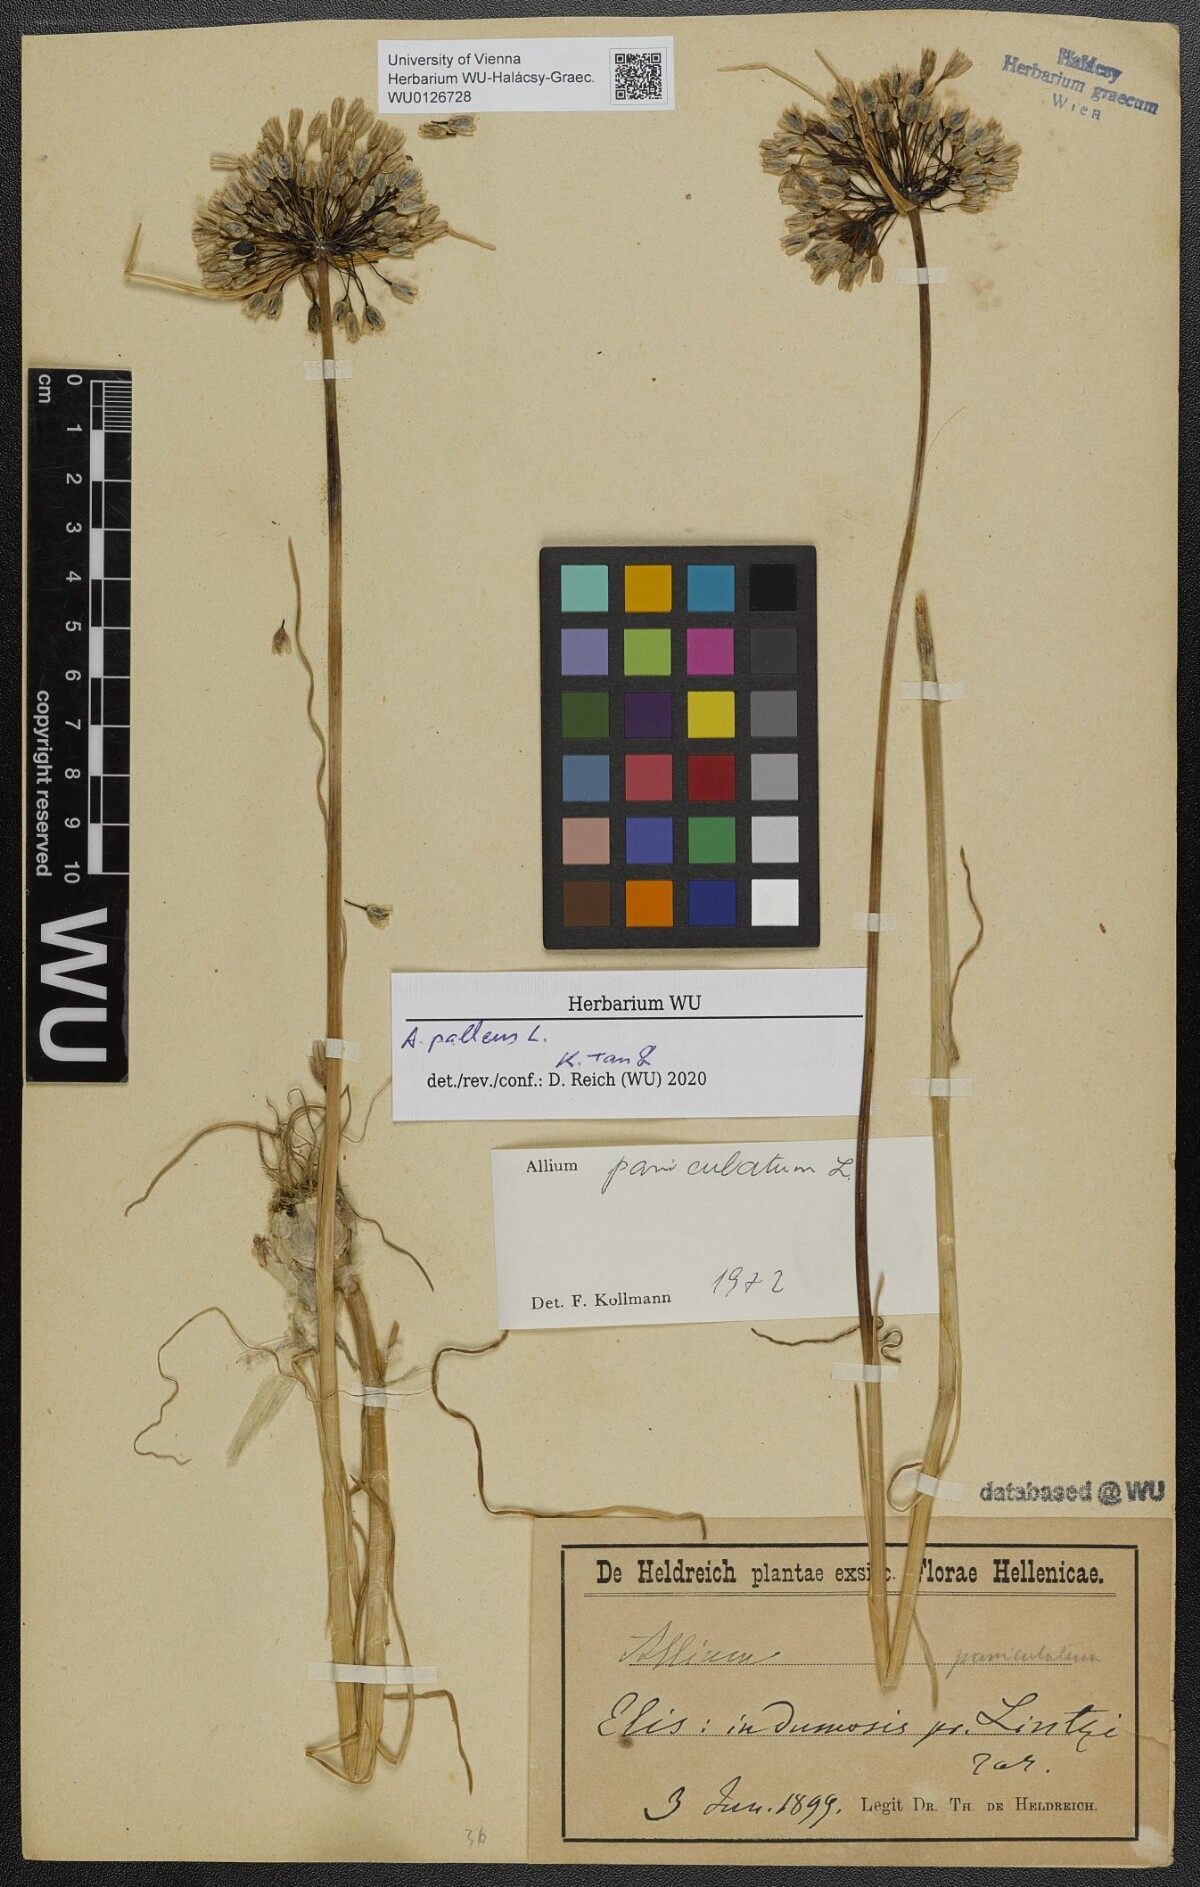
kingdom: Plantae
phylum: Tracheophyta
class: Liliopsida
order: Asparagales
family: Amaryllidaceae
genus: Allium
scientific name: Allium pallens
